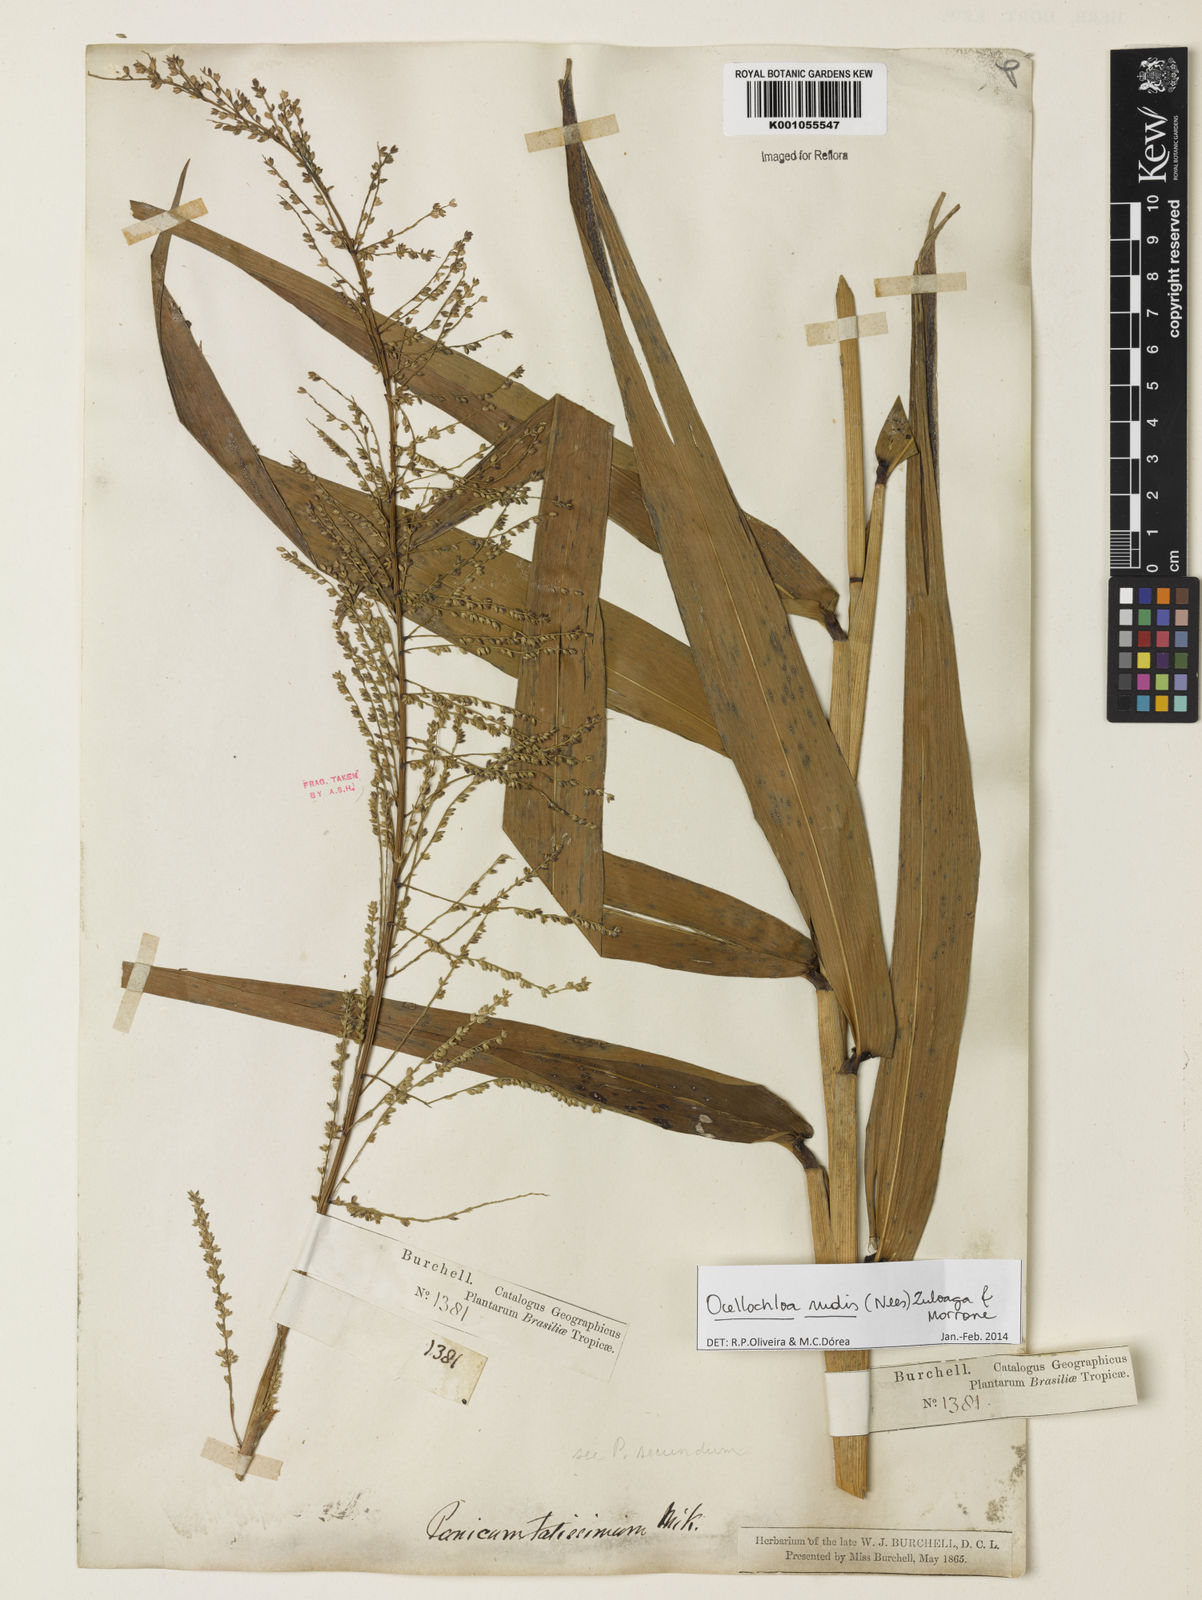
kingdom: Plantae
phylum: Tracheophyta
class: Liliopsida
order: Poales
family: Poaceae
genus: Ocellochloa
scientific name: Ocellochloa rudis
